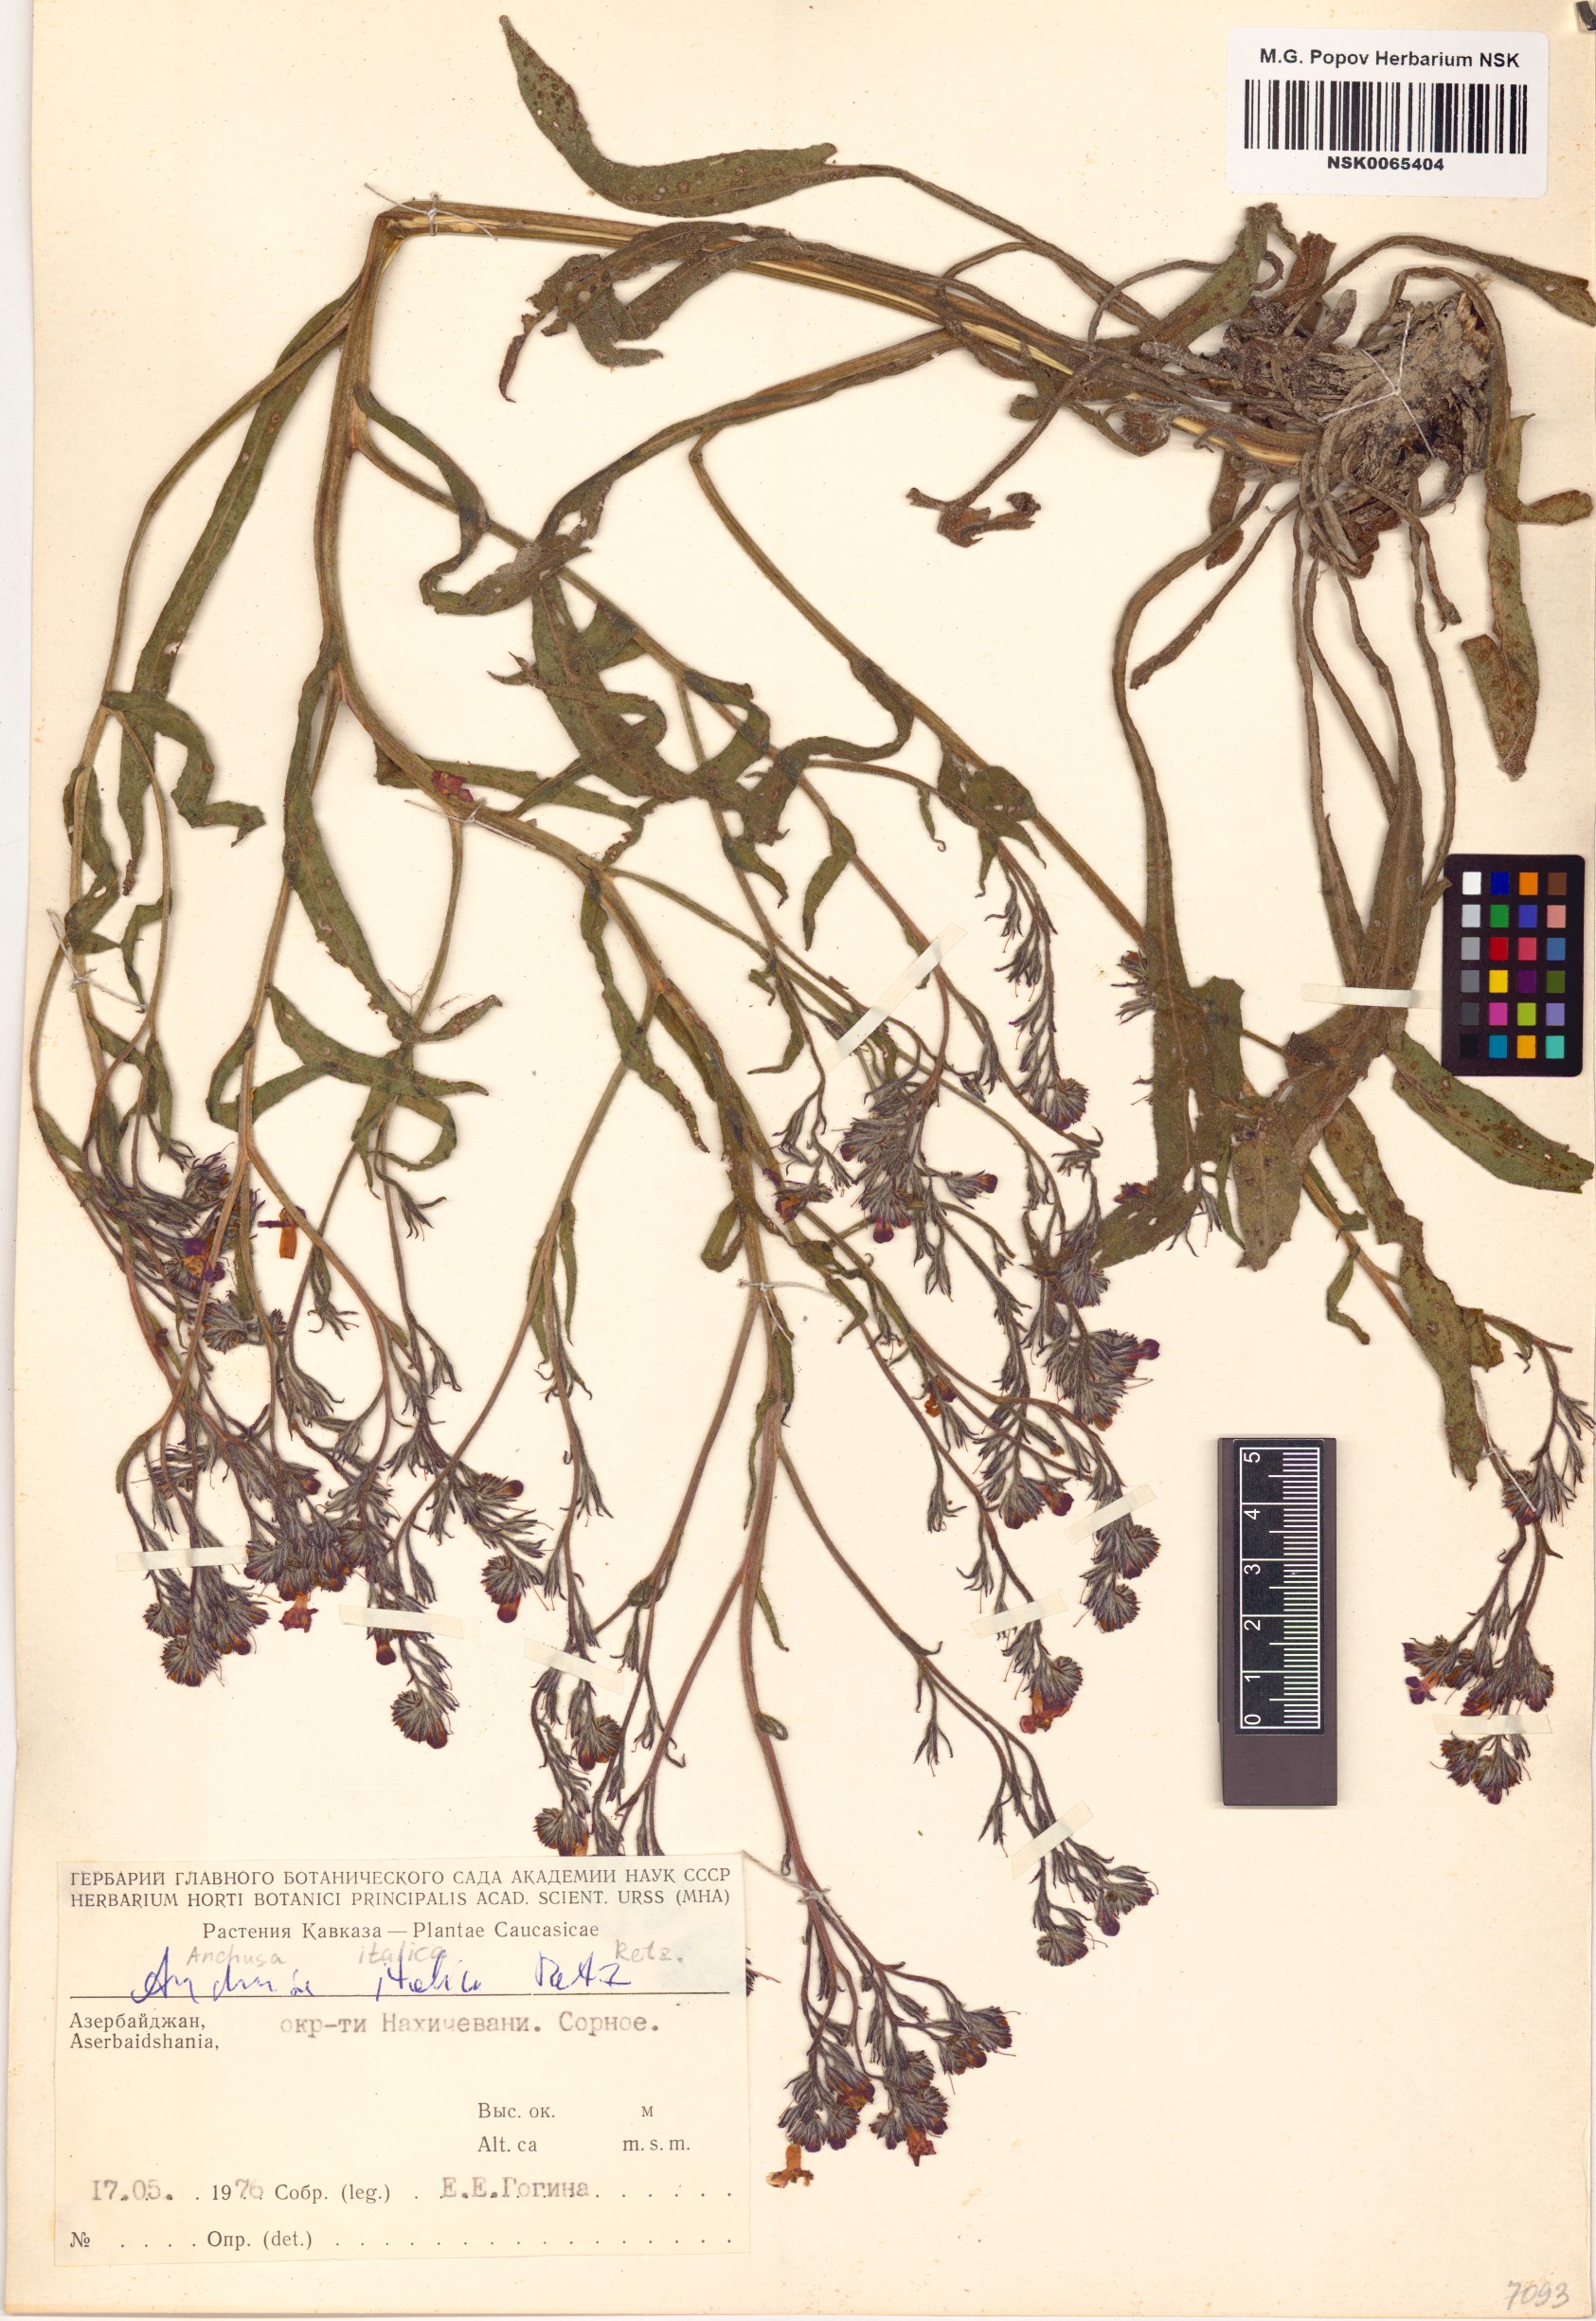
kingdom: Plantae
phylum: Tracheophyta
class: Magnoliopsida
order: Boraginales
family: Boraginaceae
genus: Anchusa
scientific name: Anchusa azurea
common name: Garden anchusa
